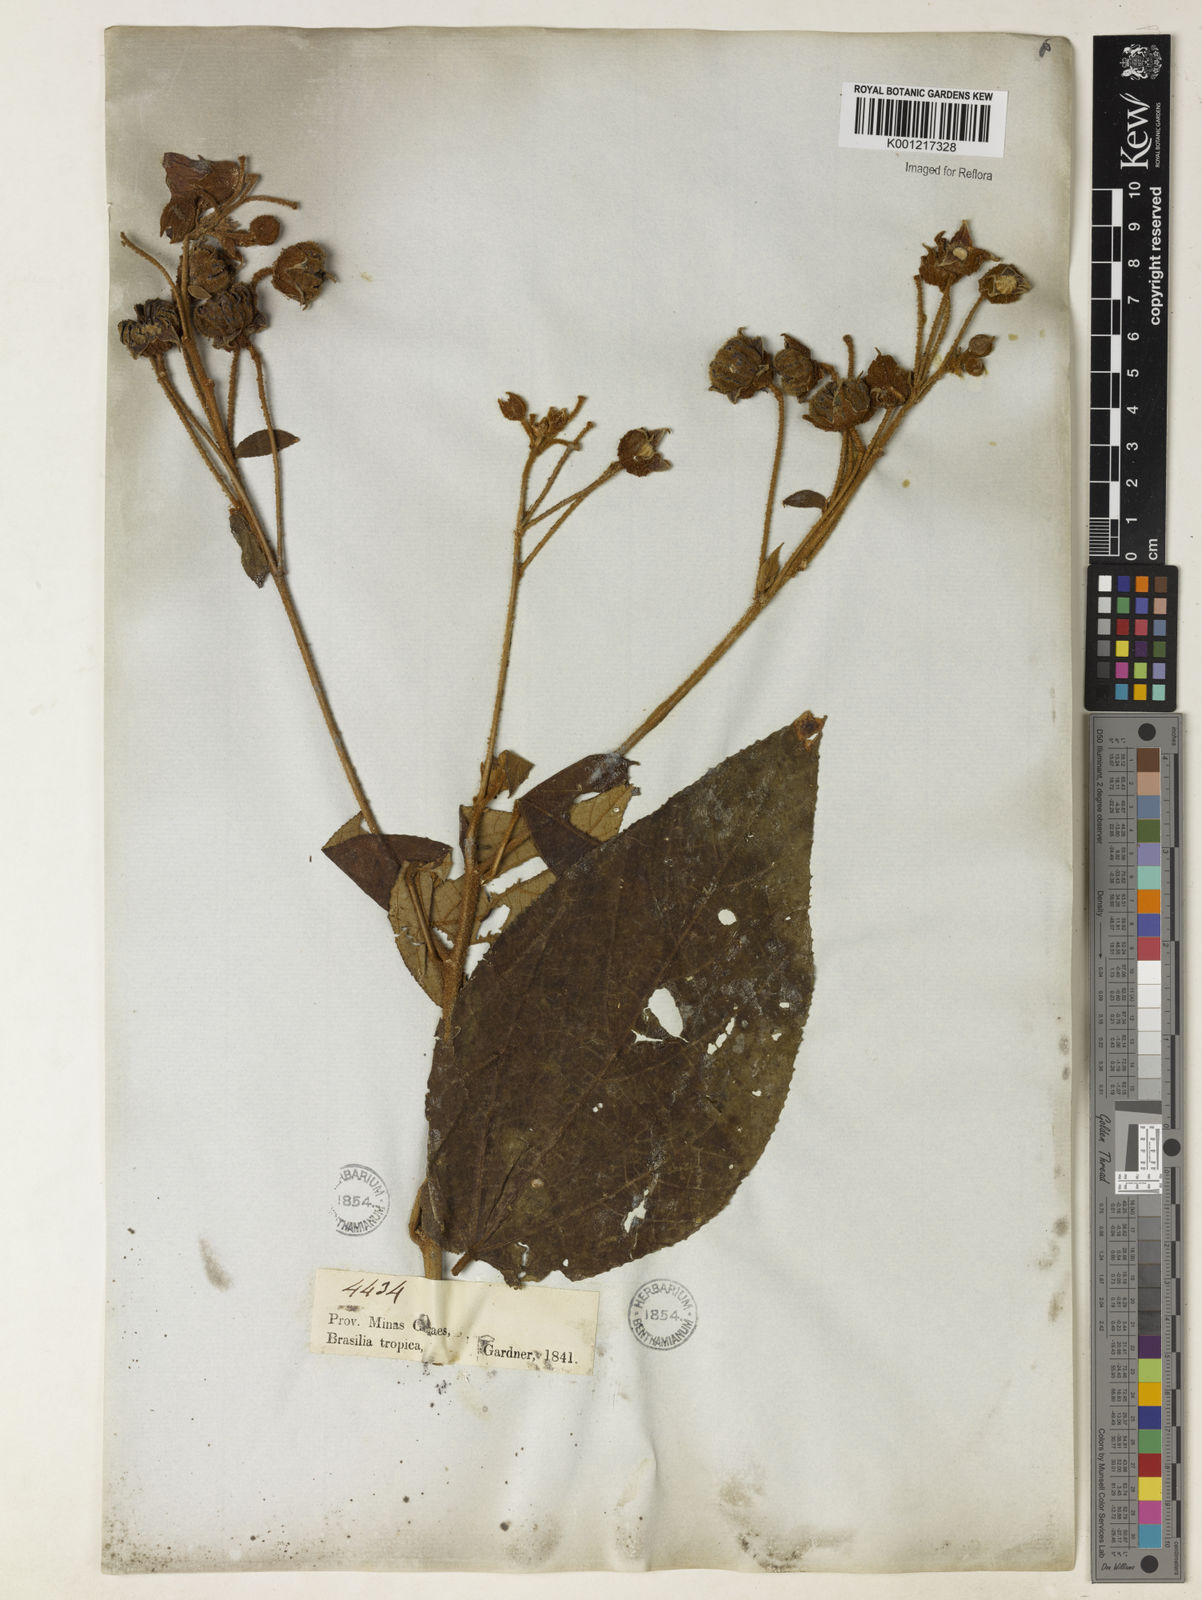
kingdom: Plantae
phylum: Tracheophyta
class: Magnoliopsida
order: Malvales
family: Malvaceae
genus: Callianthe
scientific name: Callianthe rufinerva
